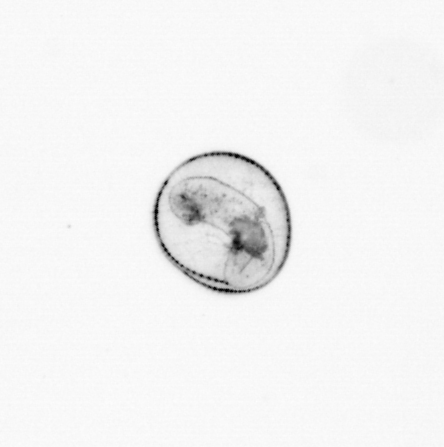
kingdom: Chromista
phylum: Myzozoa
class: Dinophyceae
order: Noctilucales
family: Noctilucaceae
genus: Noctiluca
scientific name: Noctiluca scintillans
